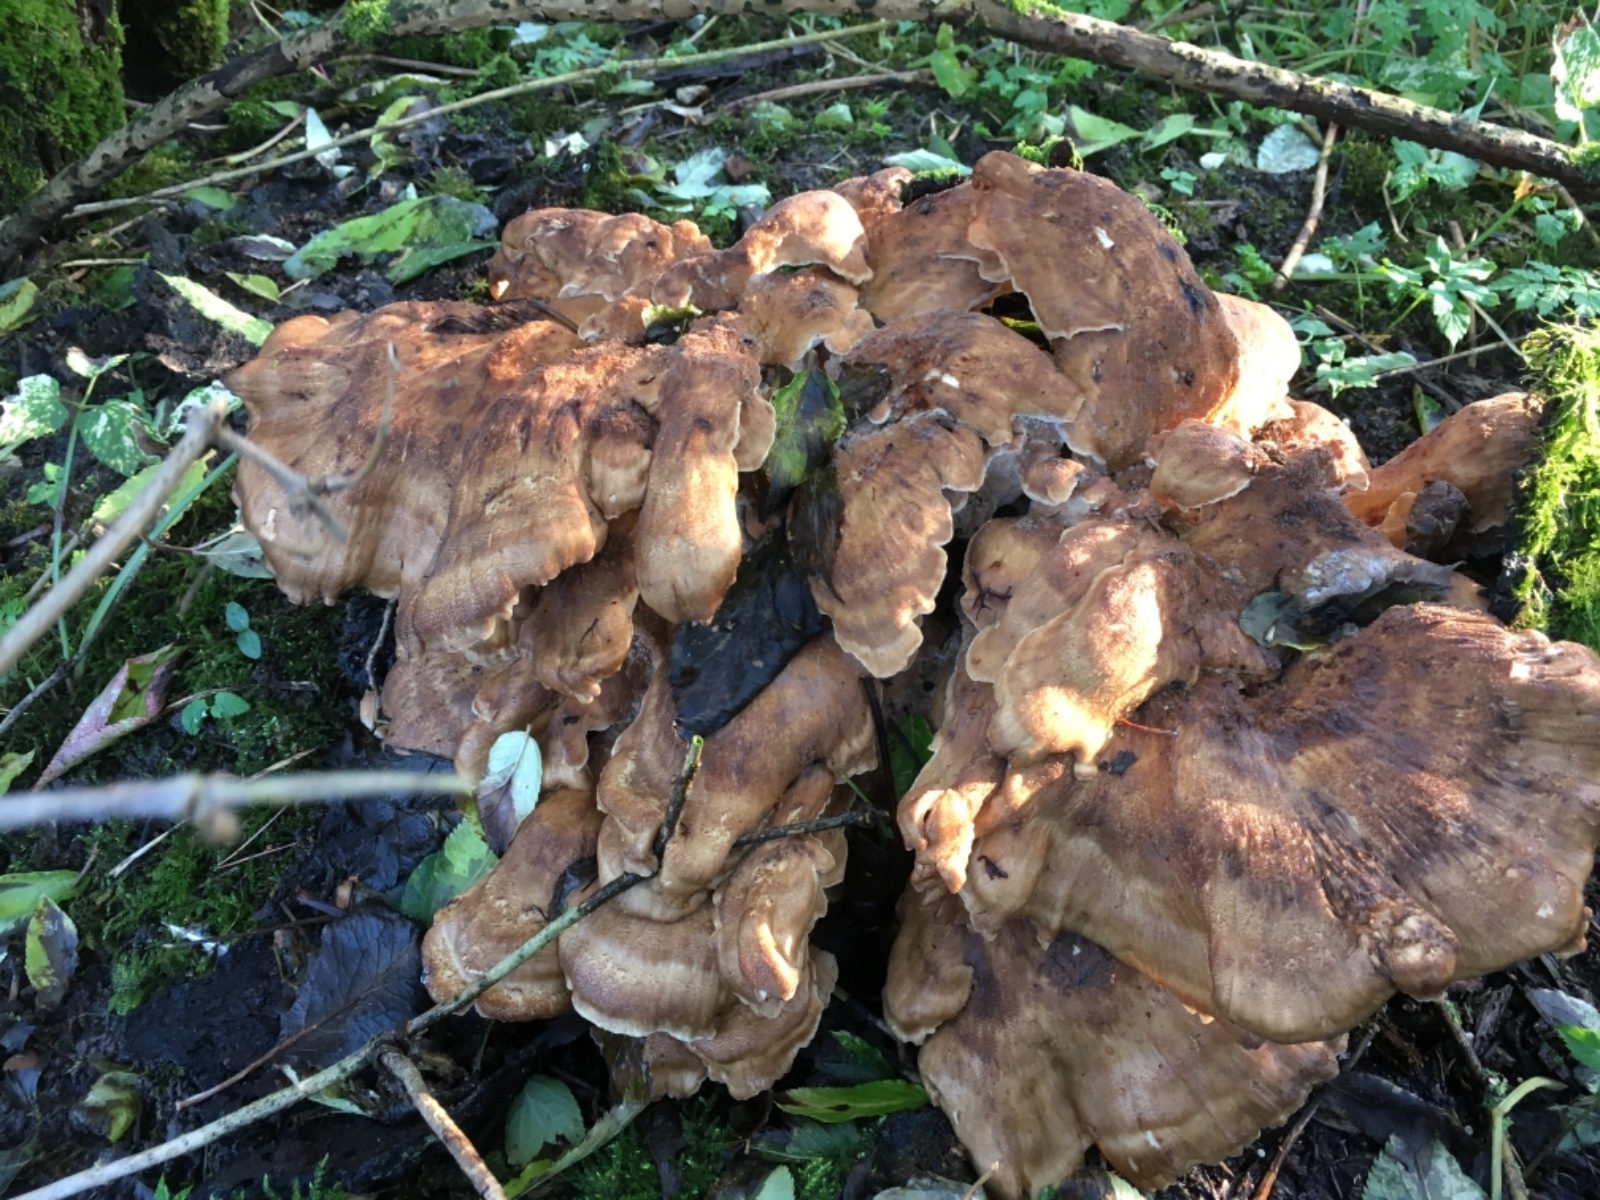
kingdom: Fungi
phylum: Basidiomycota
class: Agaricomycetes
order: Polyporales
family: Meripilaceae
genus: Meripilus
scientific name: Meripilus giganteus
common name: kæmpeporesvamp
